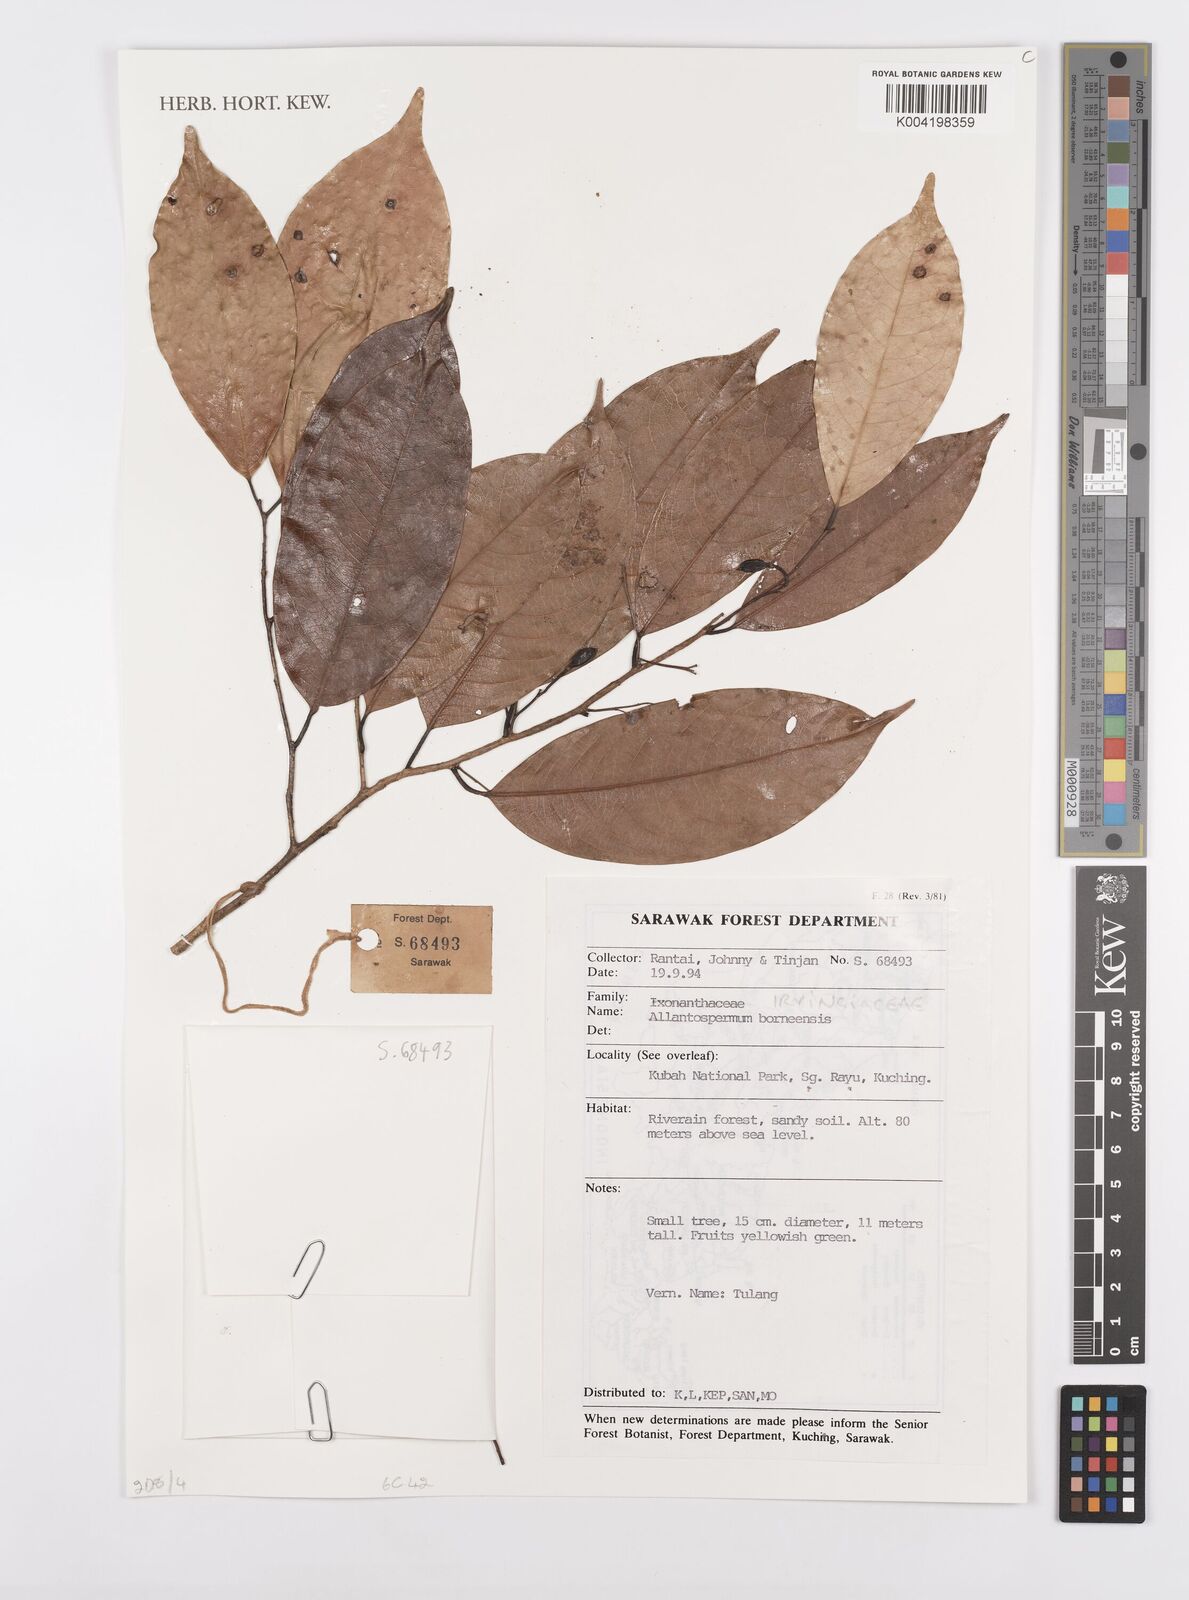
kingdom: Plantae
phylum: Tracheophyta
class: Magnoliopsida
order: Malpighiales
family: Ixonanthaceae
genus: Allantospermum
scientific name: Allantospermum borneense
